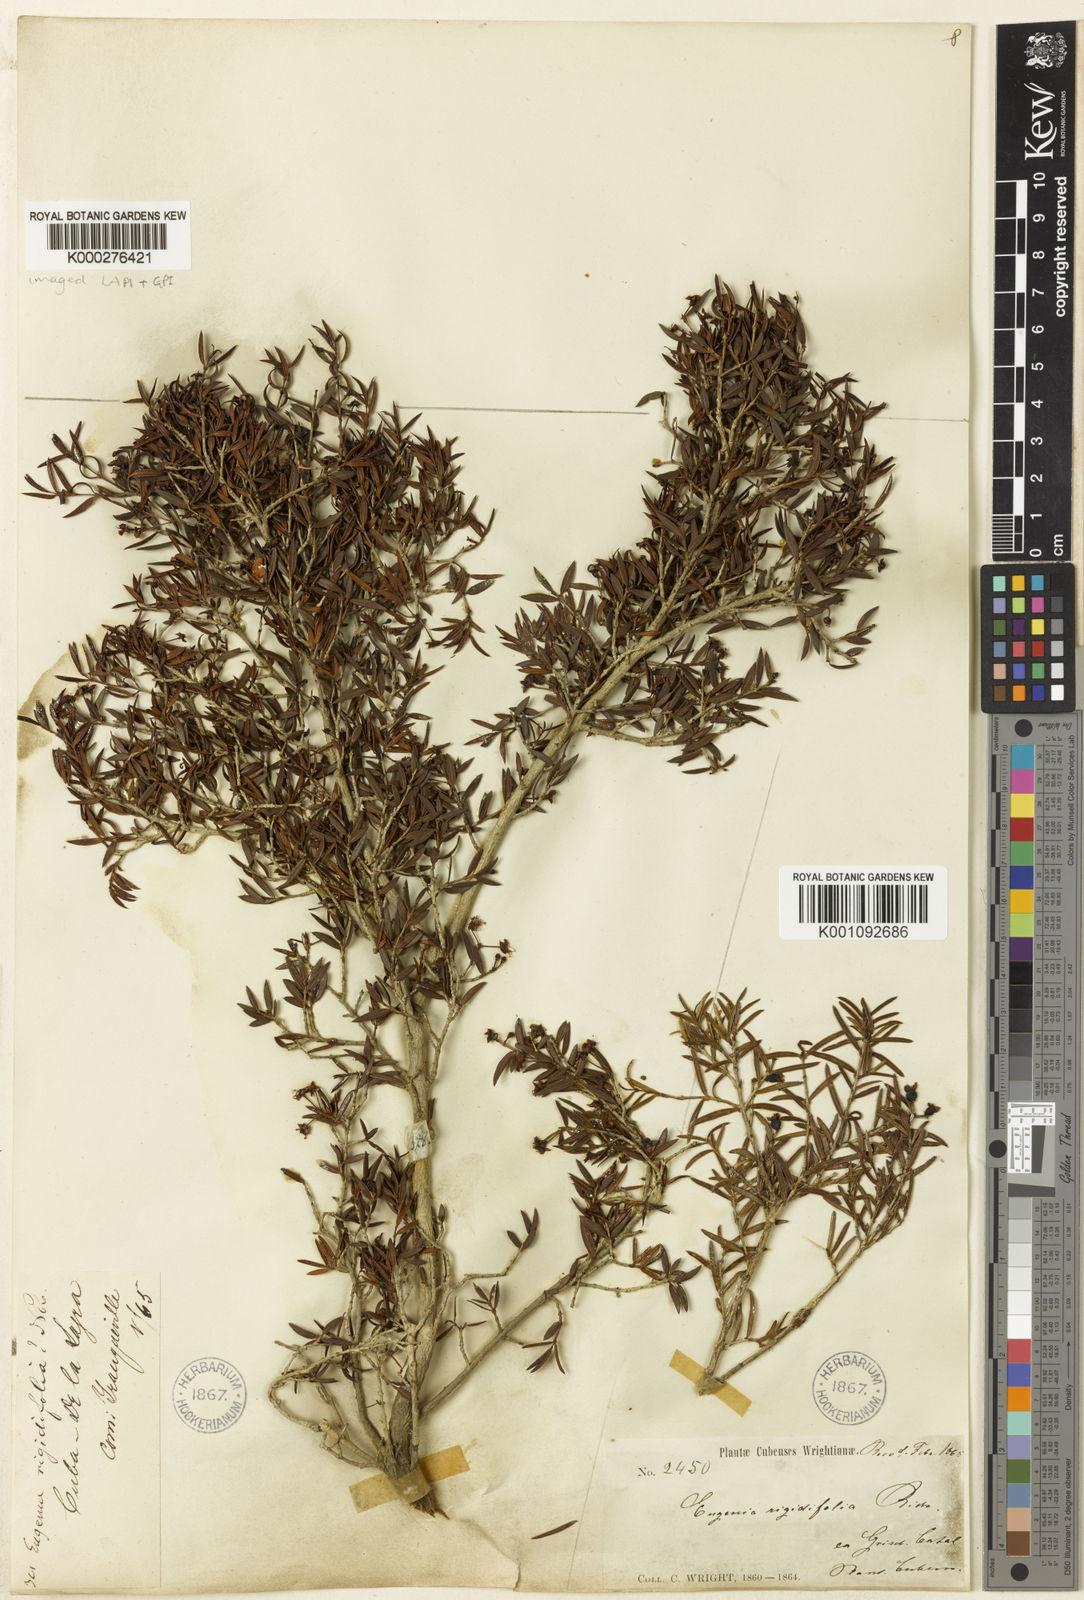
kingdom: Plantae
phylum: Tracheophyta
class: Magnoliopsida
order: Myrtales
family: Myrtaceae
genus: Eugenia
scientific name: Eugenia rigidifolia
